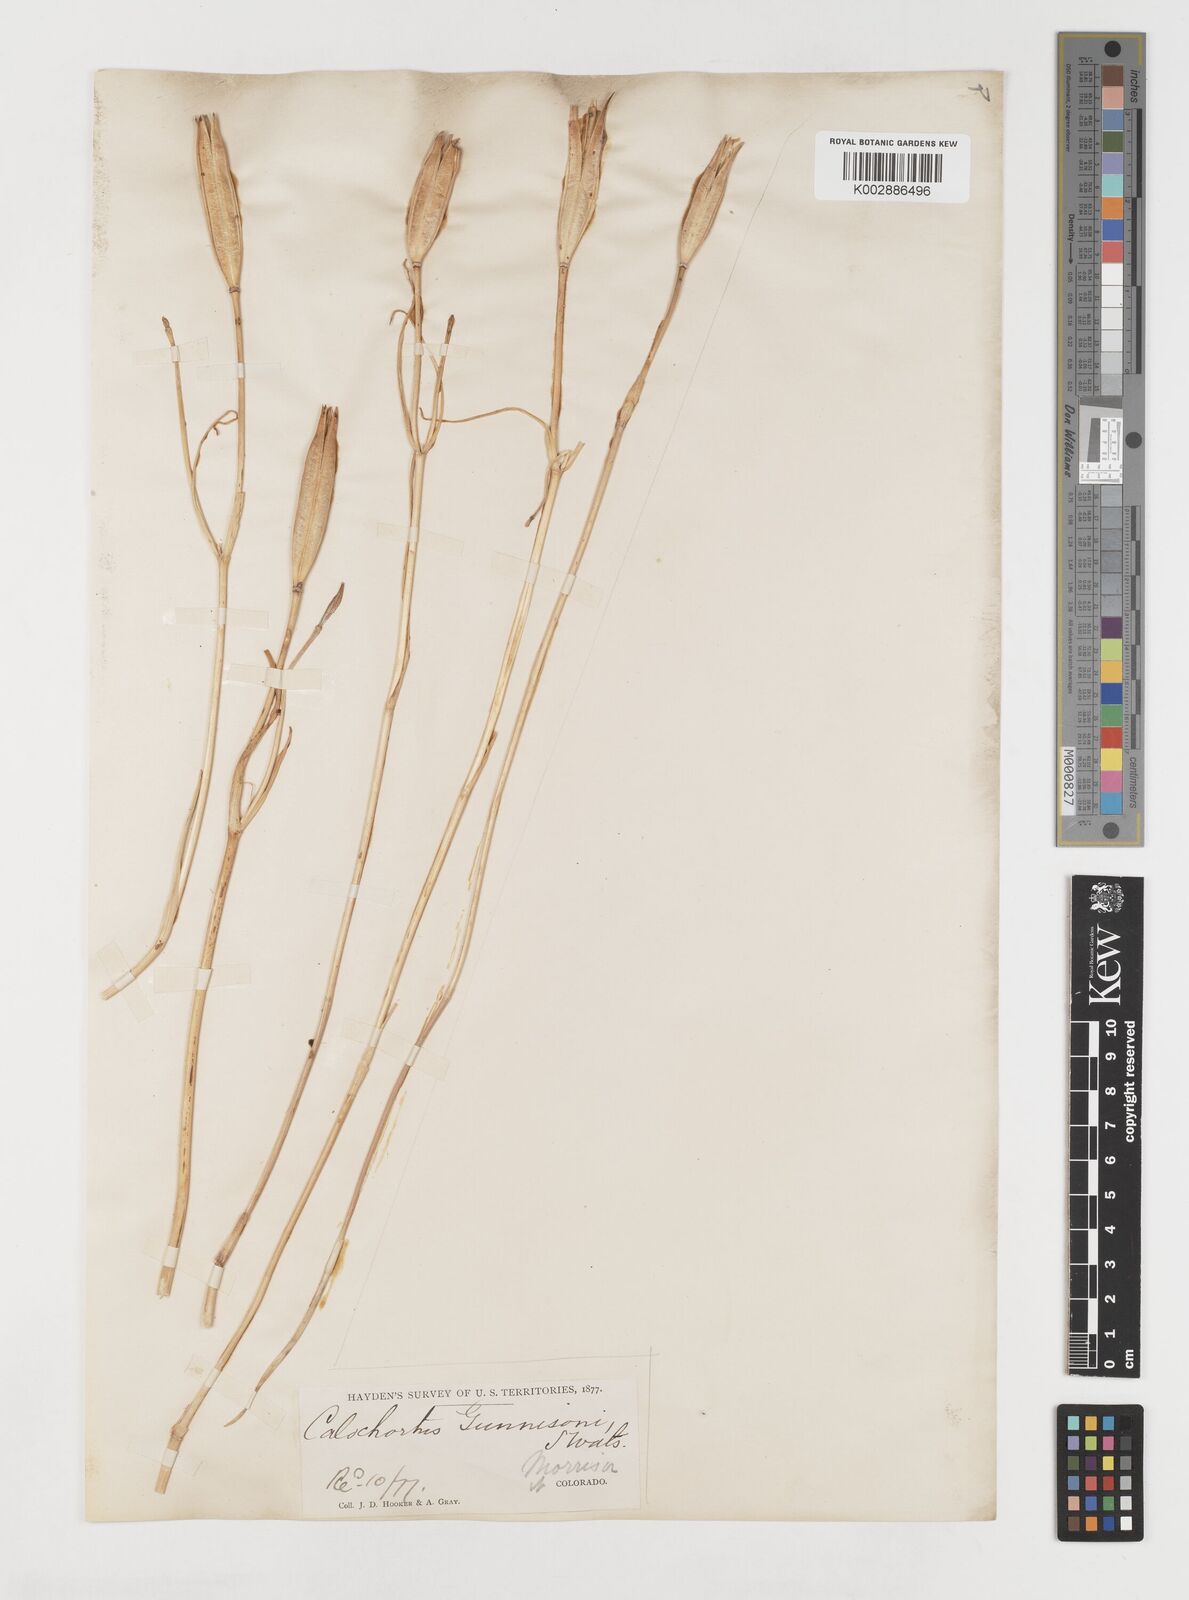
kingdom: Plantae
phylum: Tracheophyta
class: Liliopsida
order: Liliales
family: Liliaceae
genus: Calochortus
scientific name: Calochortus gunnisonii
